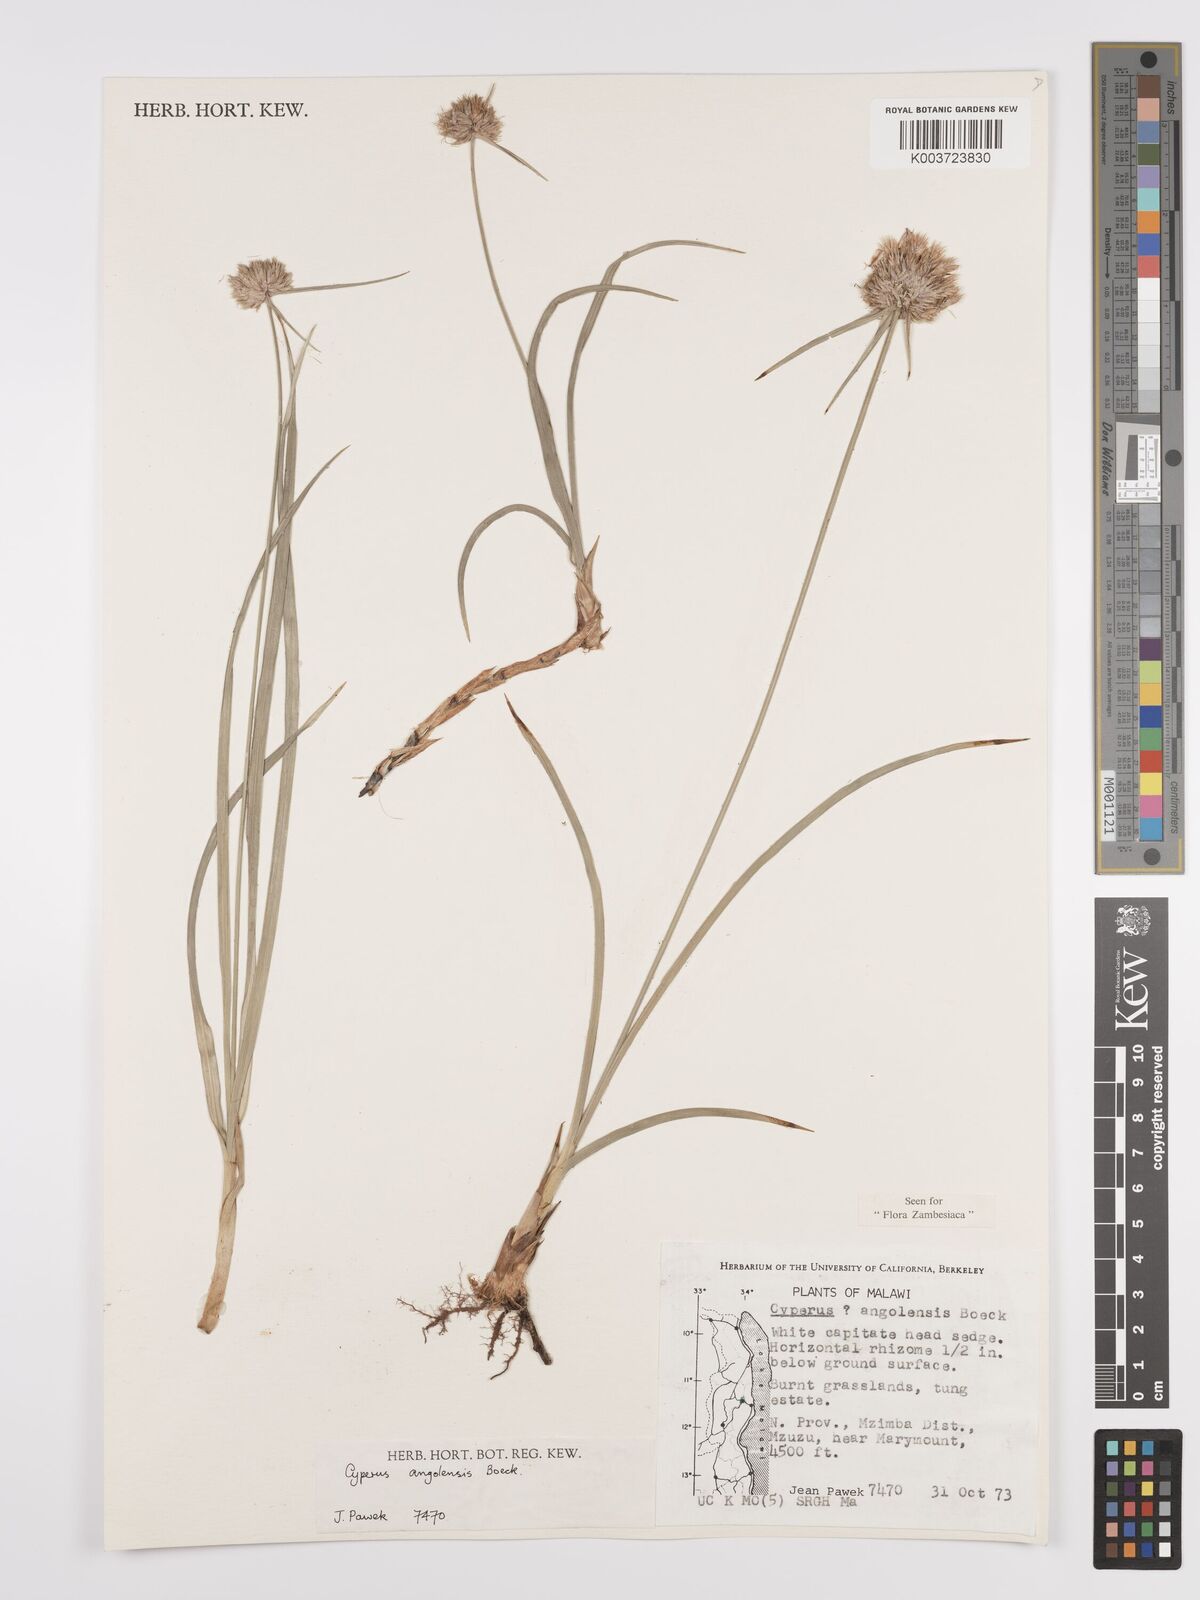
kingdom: Plantae
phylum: Tracheophyta
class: Liliopsida
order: Poales
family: Cyperaceae
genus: Cyperus
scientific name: Cyperus angolensis
